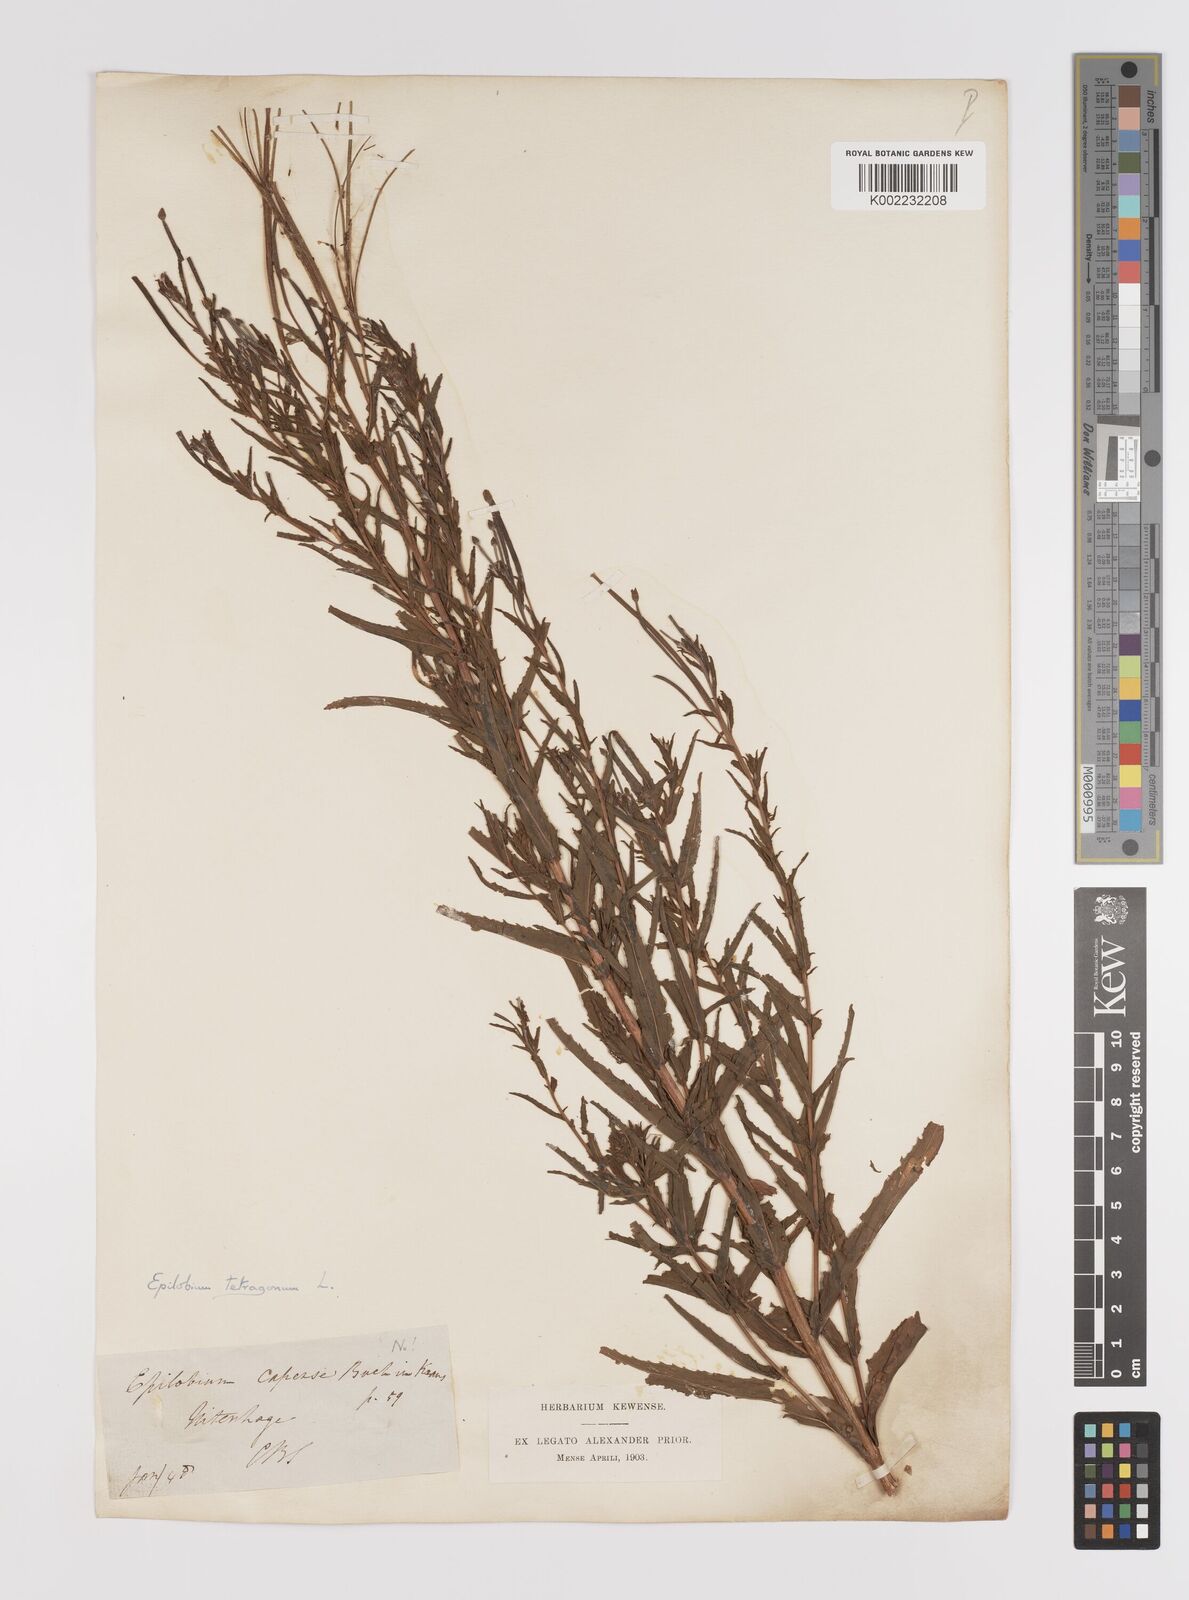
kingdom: Plantae
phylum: Tracheophyta
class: Magnoliopsida
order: Myrtales
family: Onagraceae
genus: Epilobium
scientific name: Epilobium tetragonum
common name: Square-stemmed willowherb
